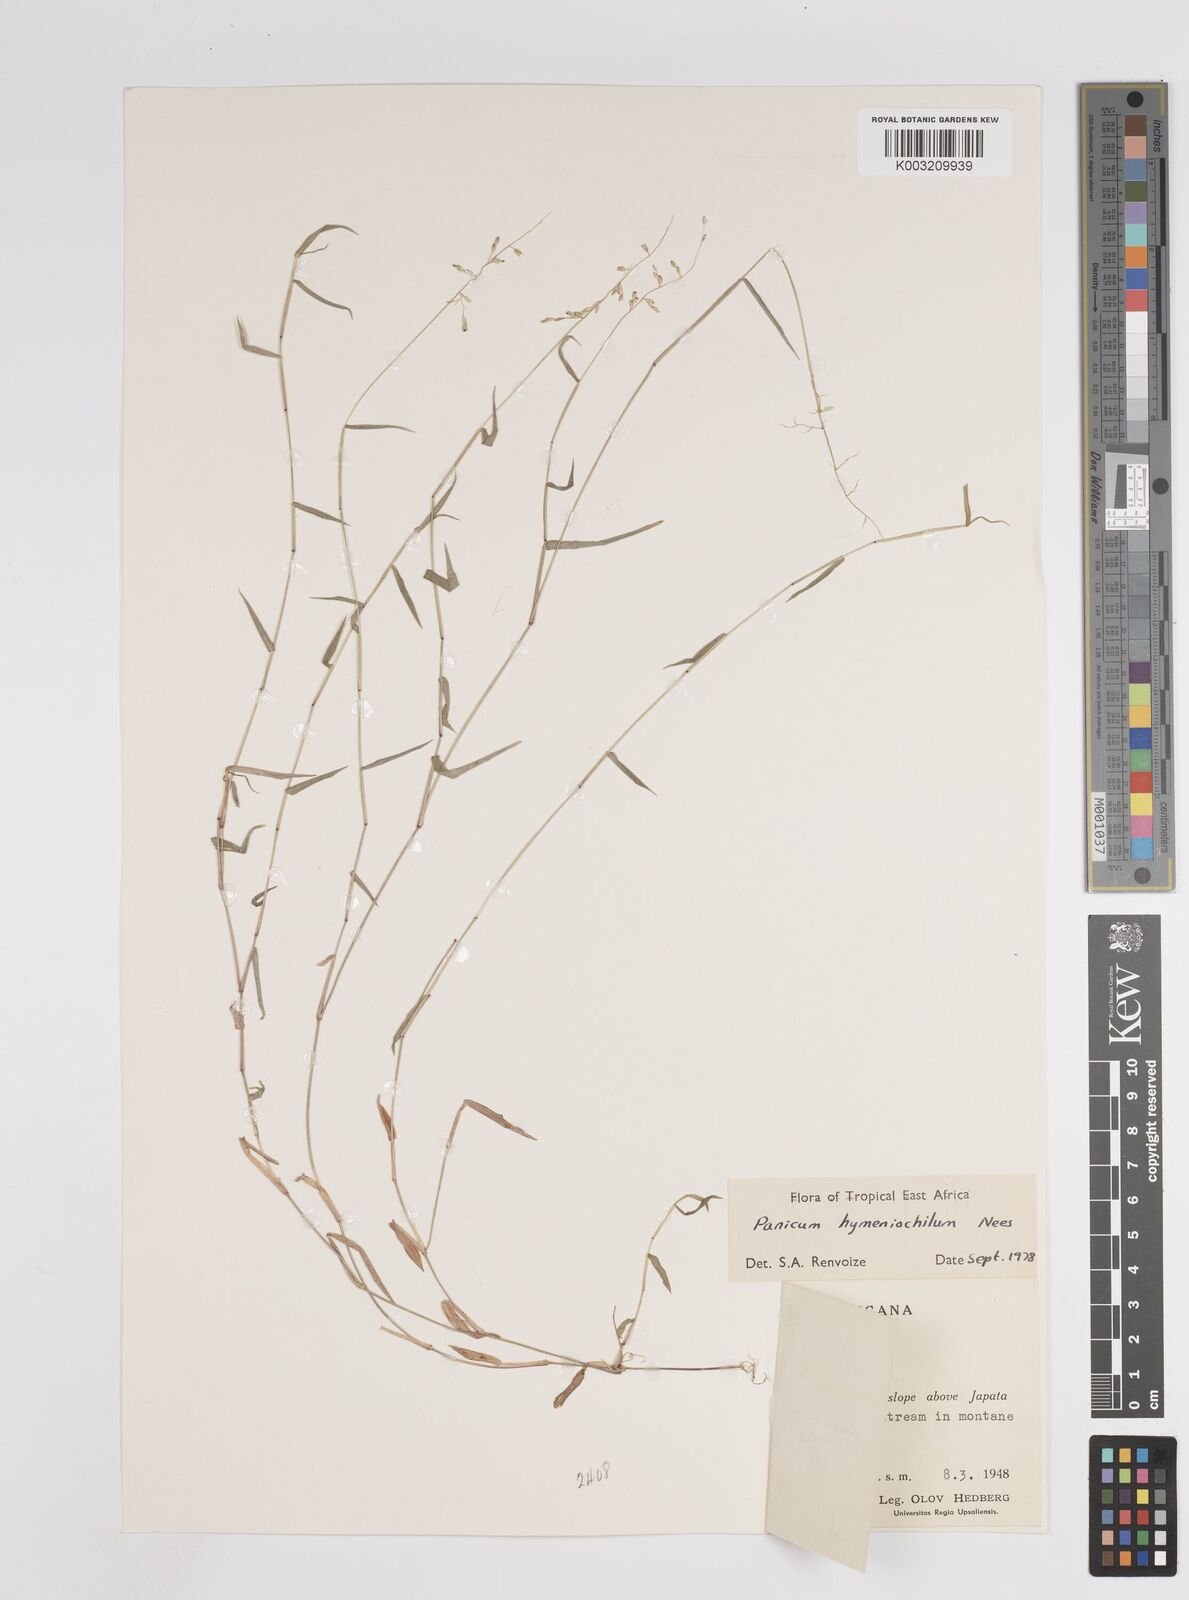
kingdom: Plantae
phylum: Tracheophyta
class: Liliopsida
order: Poales
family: Poaceae
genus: Adenochloa
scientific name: Adenochloa hymeniochila
